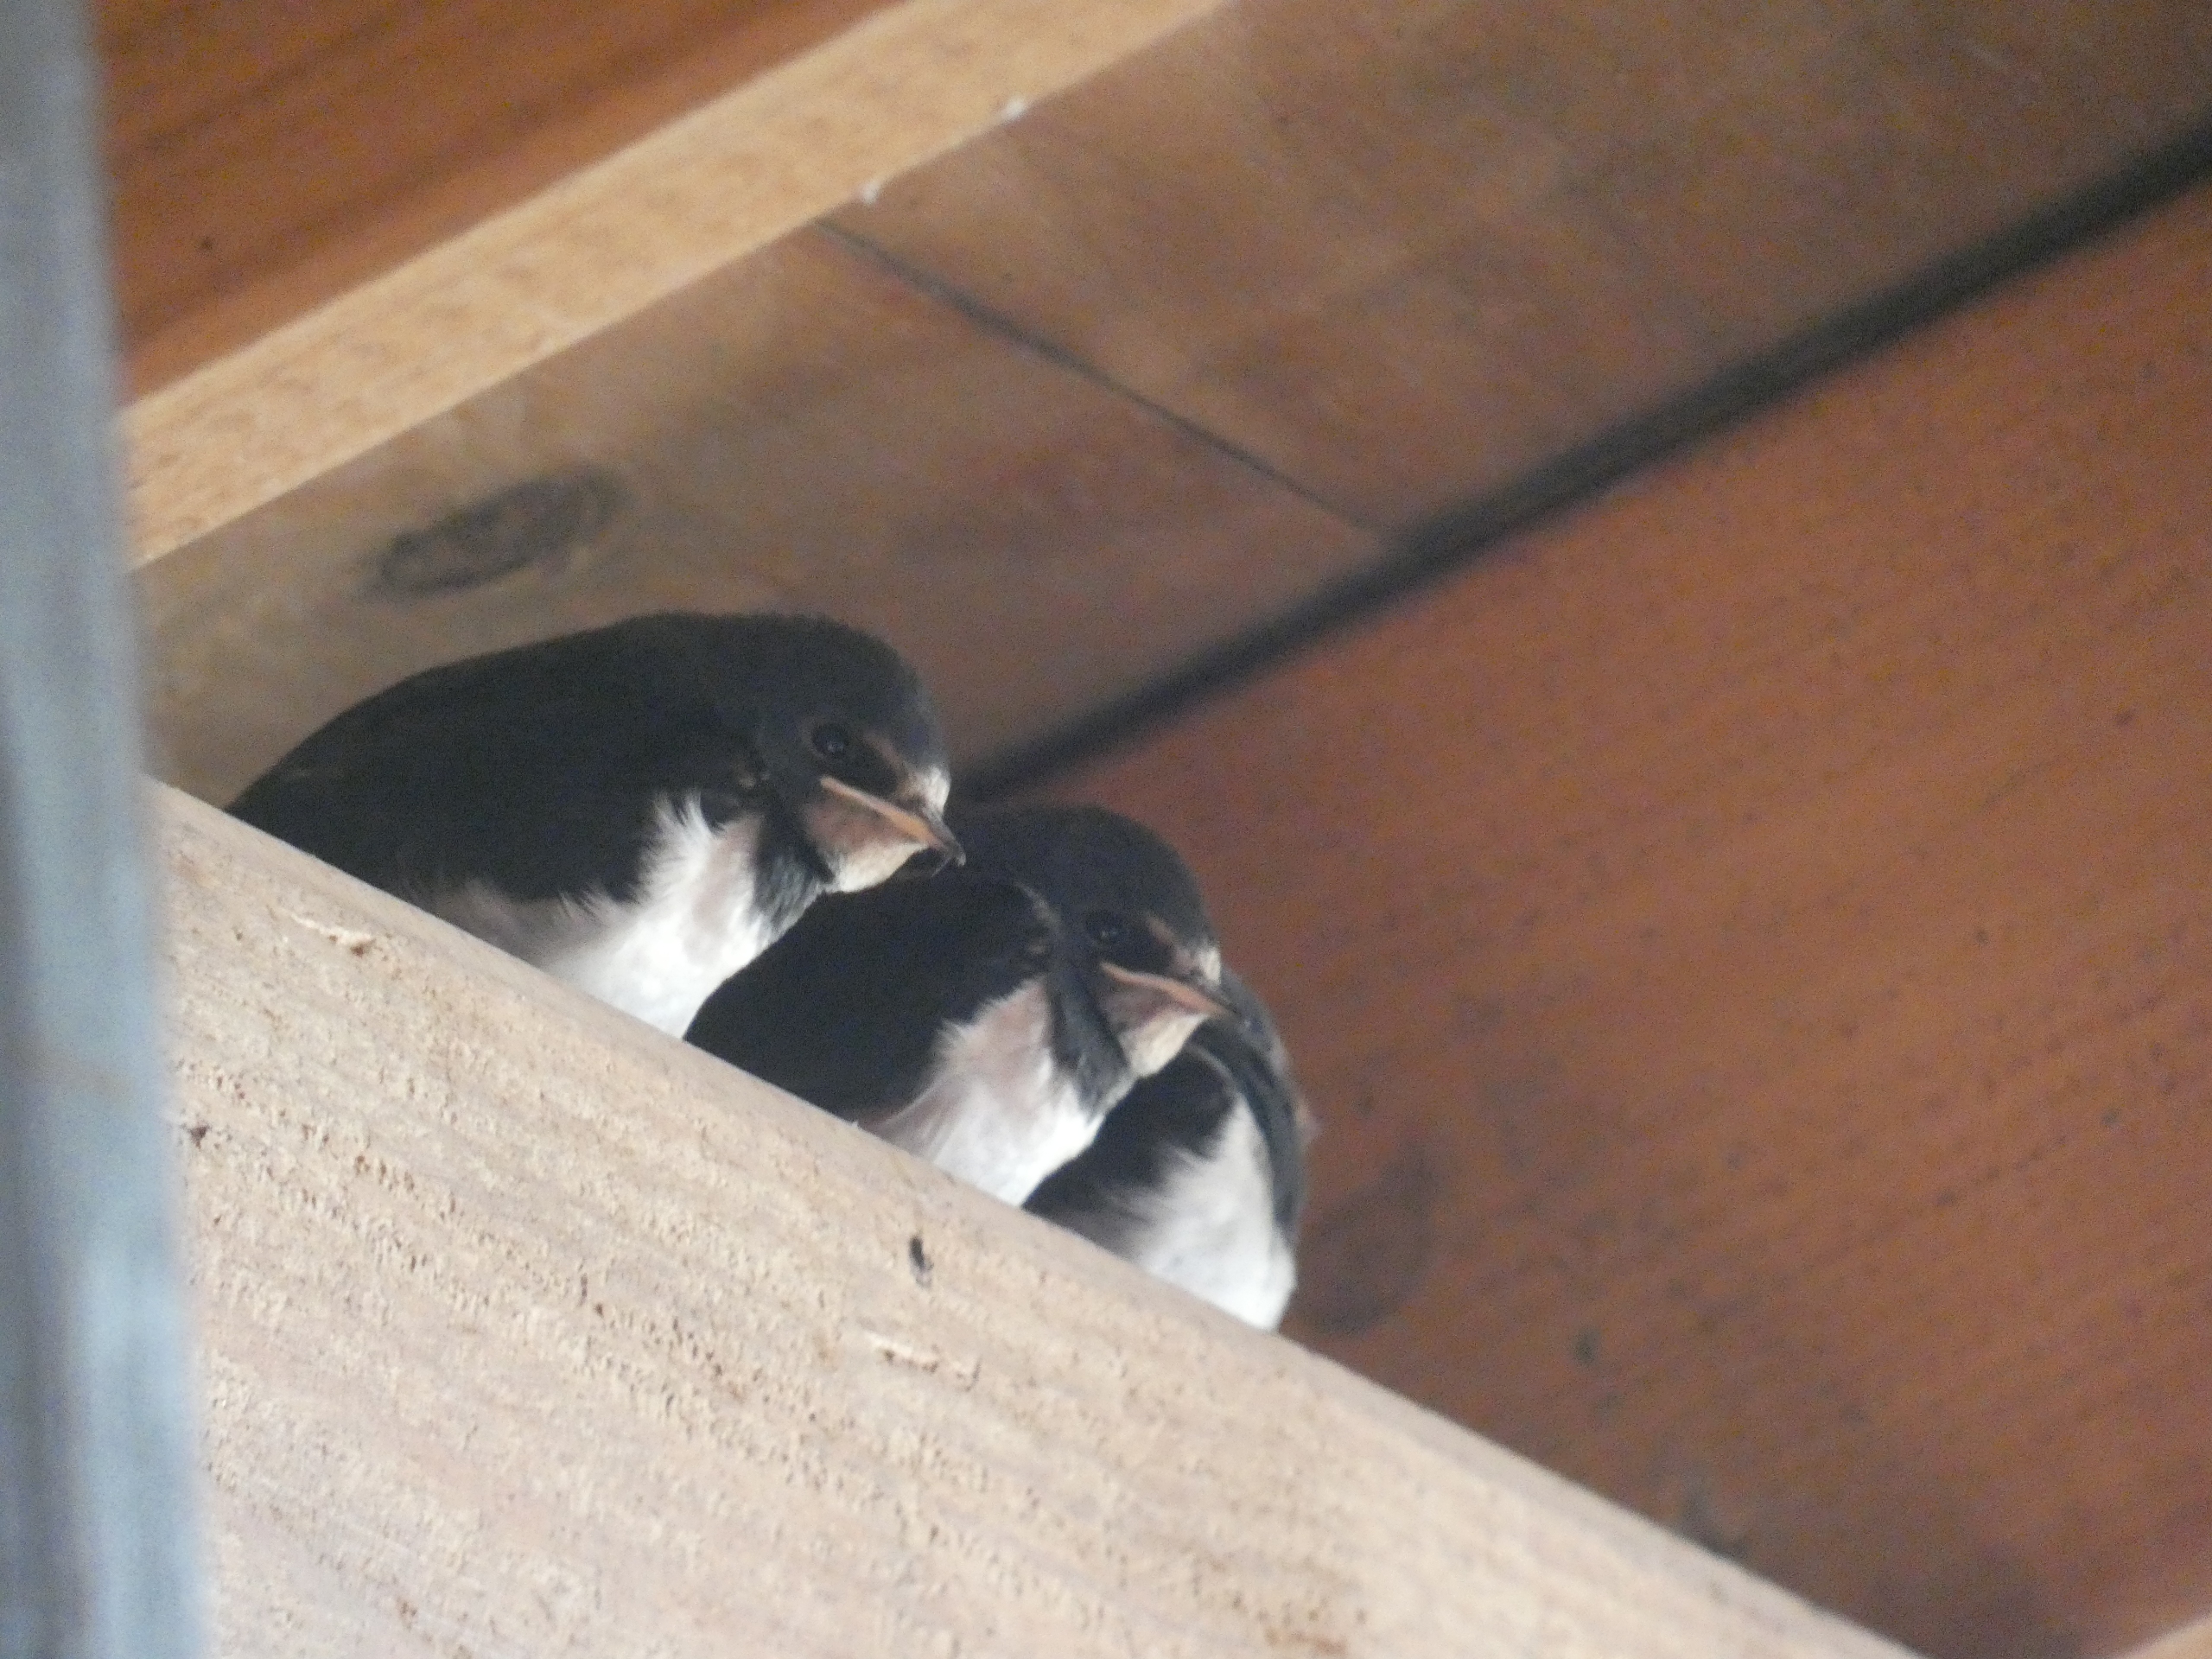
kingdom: Animalia
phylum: Chordata
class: Aves
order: Passeriformes
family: Hirundinidae
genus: Hirundo
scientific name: Hirundo rustica
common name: Landsvale
